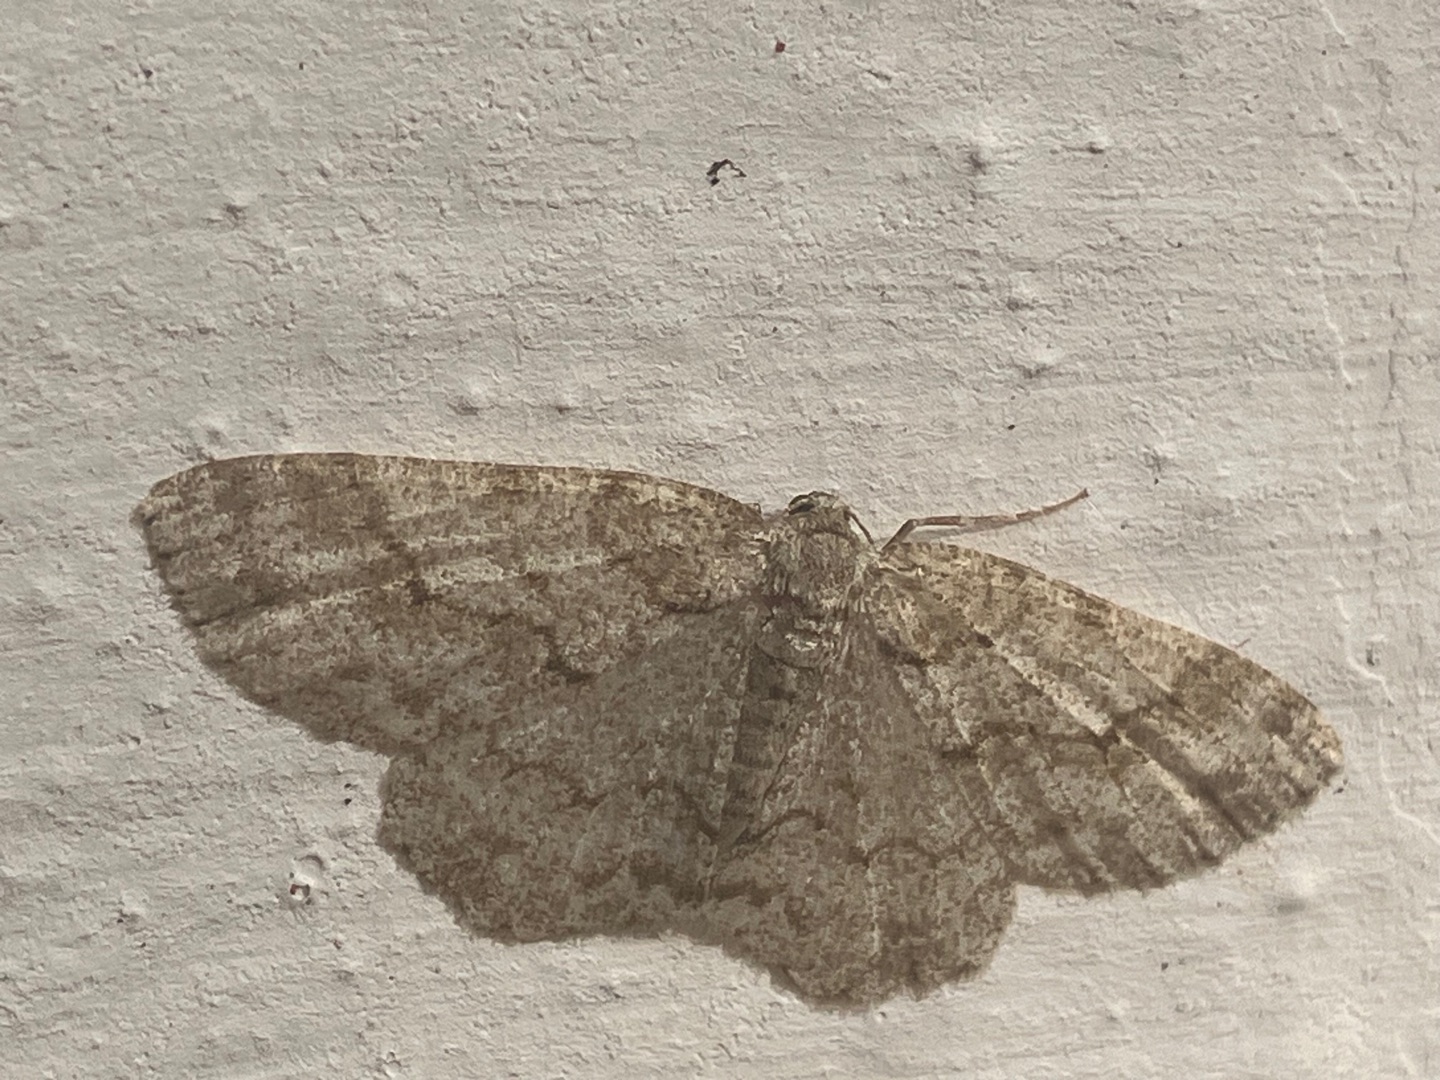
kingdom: Animalia
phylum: Arthropoda
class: Insecta
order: Lepidoptera
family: Geometridae
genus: Ectropis
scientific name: Ectropis crepuscularia
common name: Birke-barkmåler
